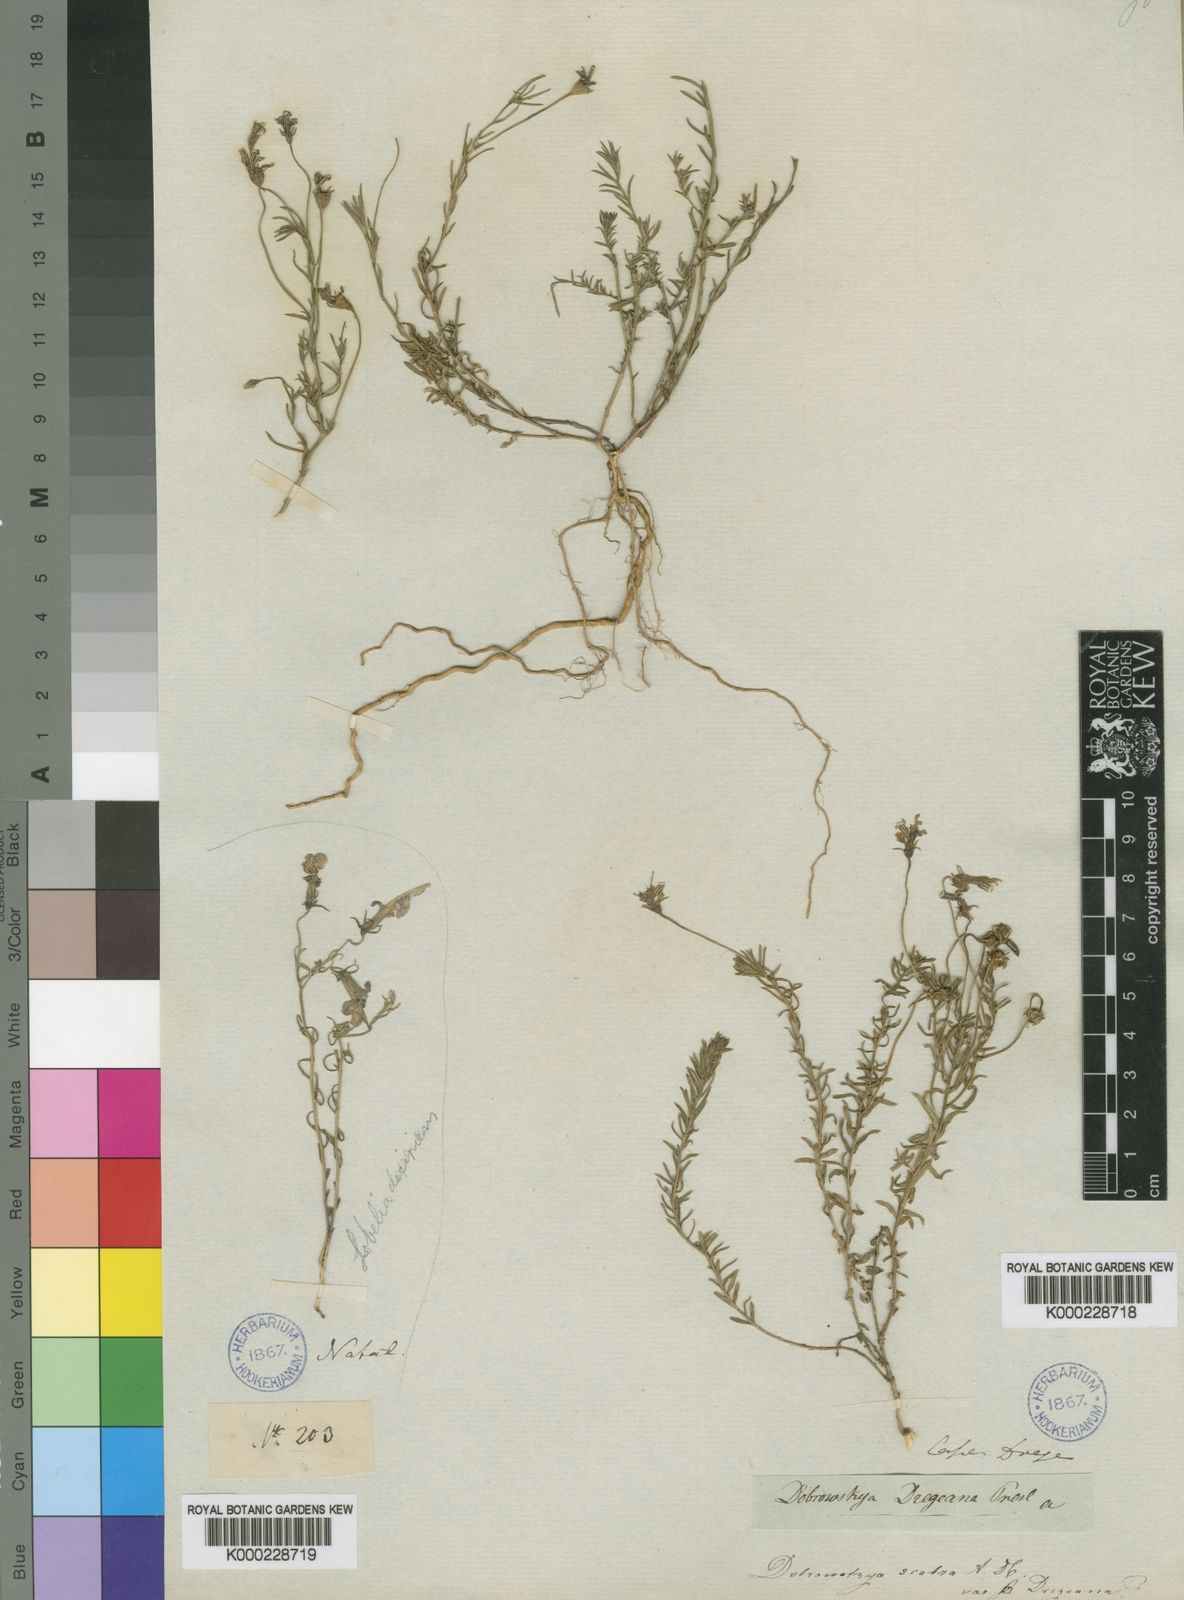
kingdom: Plantae
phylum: Tracheophyta
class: Magnoliopsida
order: Asterales
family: Campanulaceae
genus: Monopsis
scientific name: Monopsis scabra
